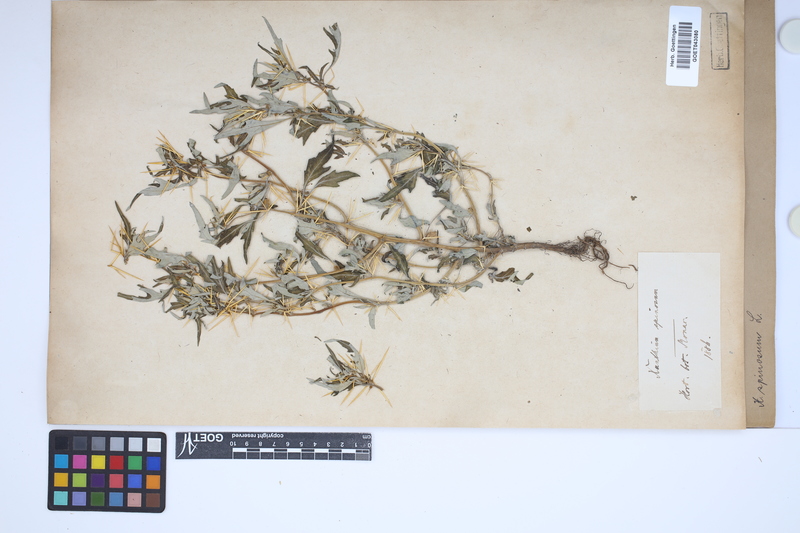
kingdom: Plantae
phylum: Tracheophyta
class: Magnoliopsida
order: Asterales
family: Asteraceae
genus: Xanthium
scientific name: Xanthium spinosum
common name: Spiny cocklebur
